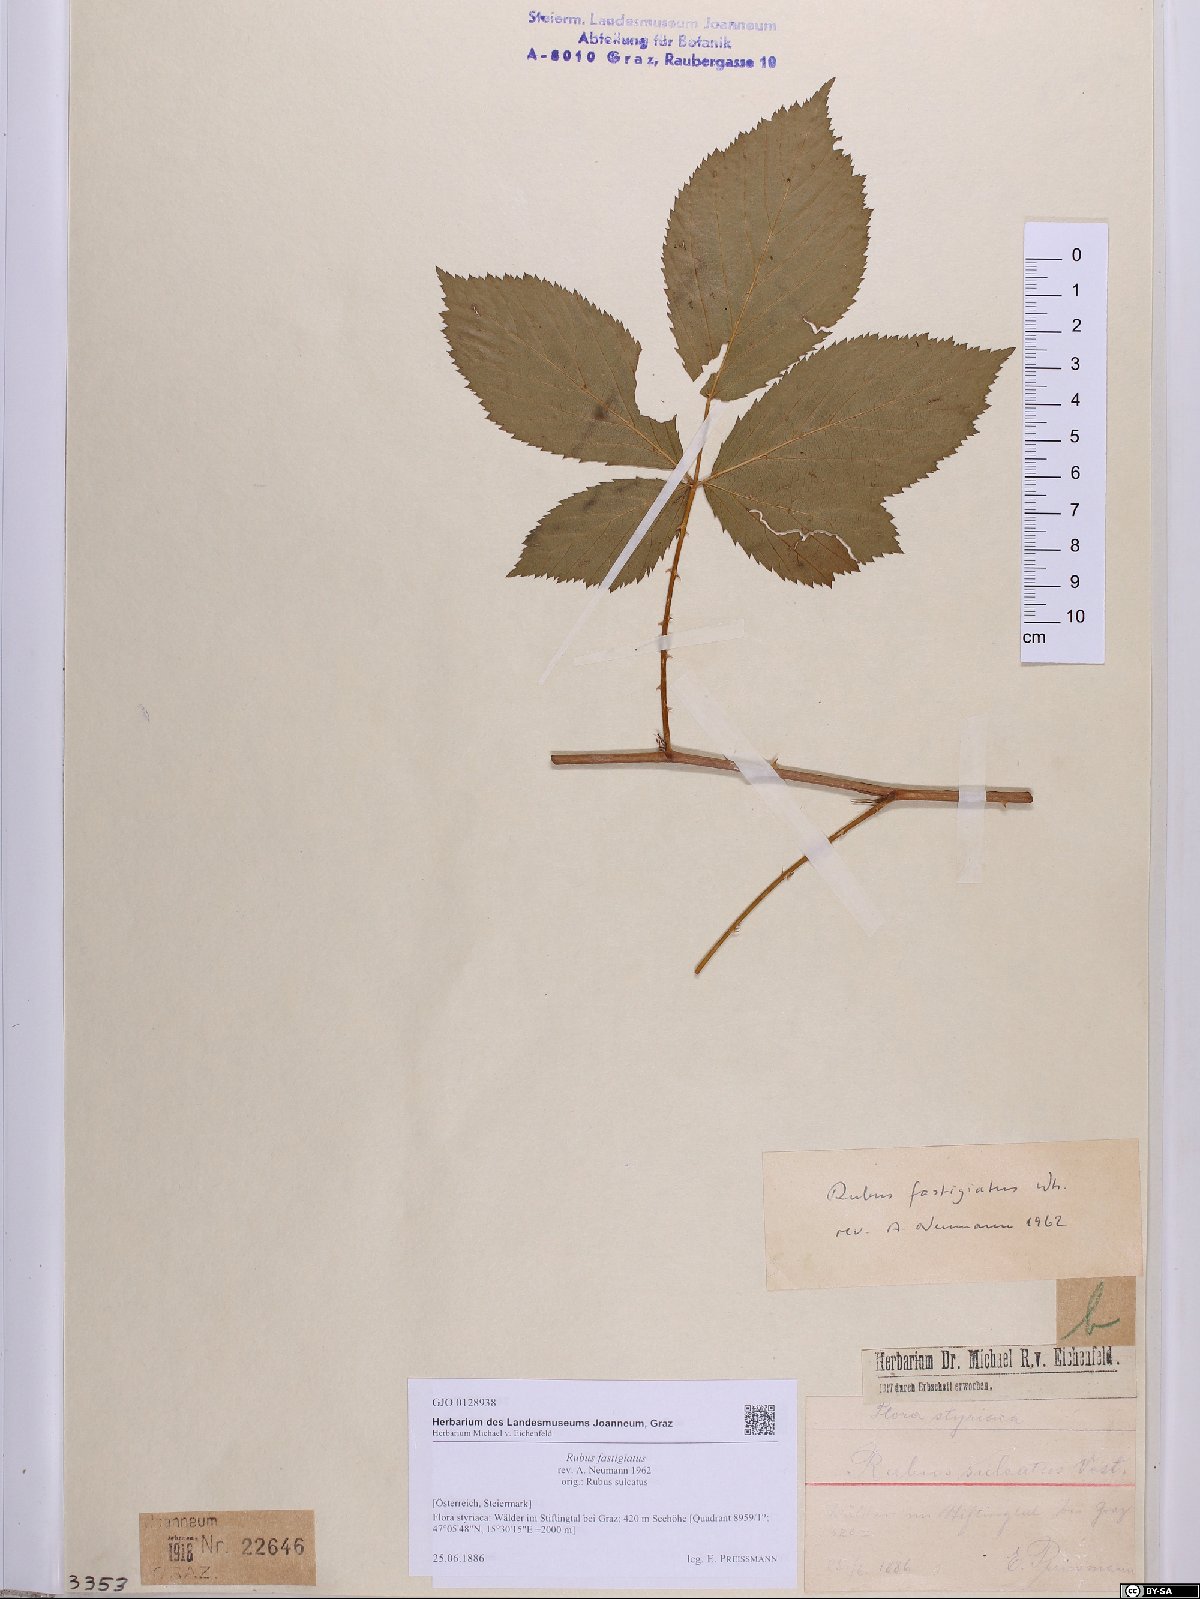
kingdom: Plantae
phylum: Tracheophyta
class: Magnoliopsida
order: Rosales
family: Rosaceae
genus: Rubus
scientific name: Rubus polonicus
